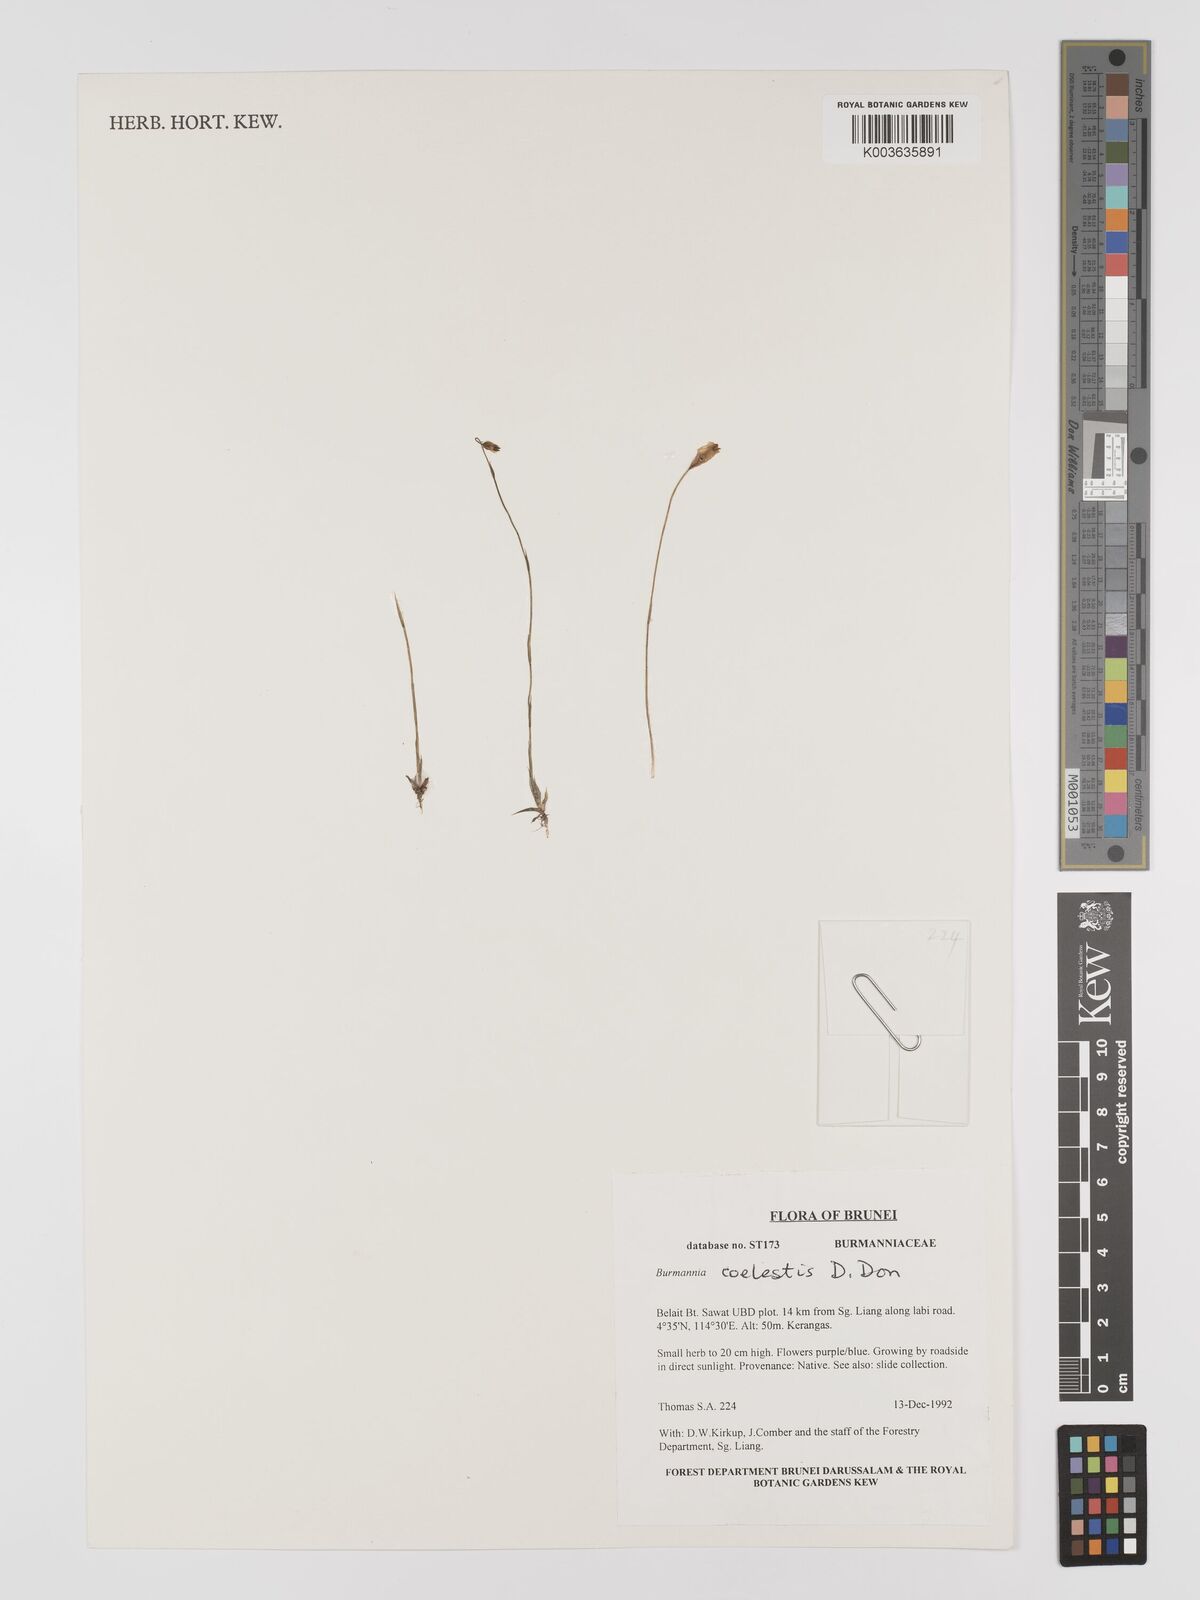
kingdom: Plantae
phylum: Tracheophyta
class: Liliopsida
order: Dioscoreales
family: Burmanniaceae
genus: Burmannia
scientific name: Burmannia coelestis
